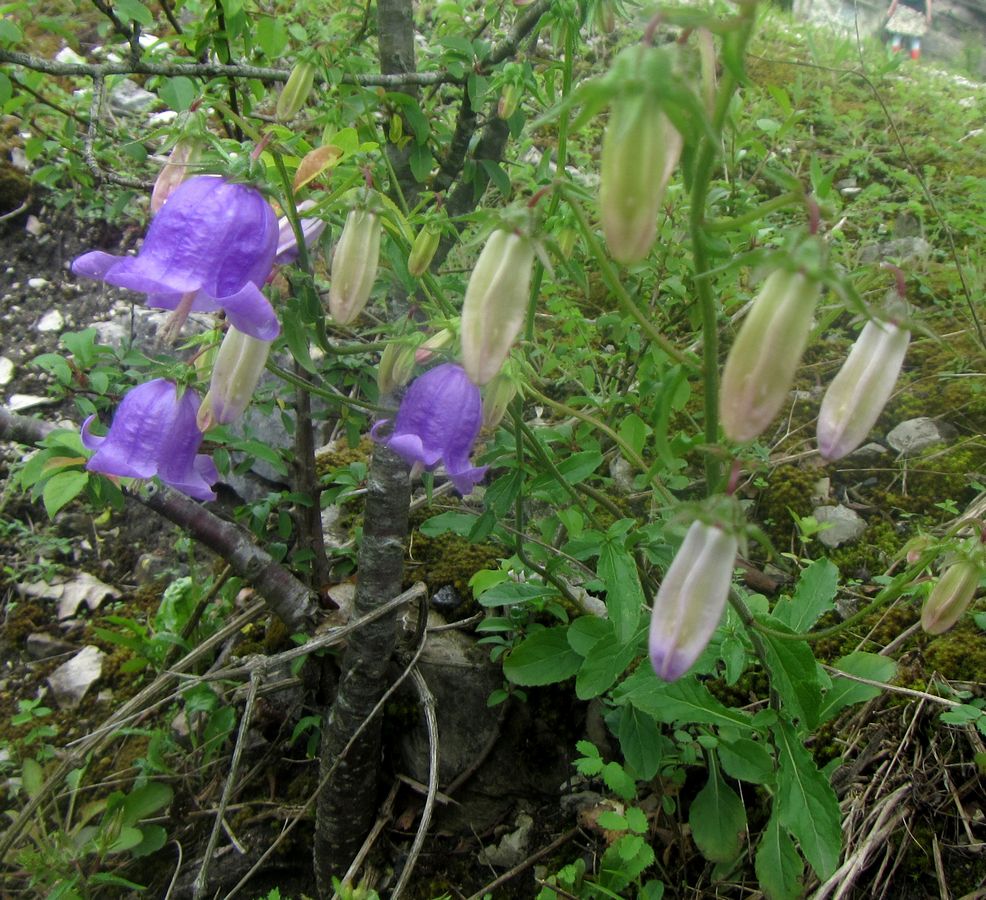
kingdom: Plantae
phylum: Tracheophyta
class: Magnoliopsida
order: Asterales
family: Campanulaceae
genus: Campanula
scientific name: Campanula longistyla
